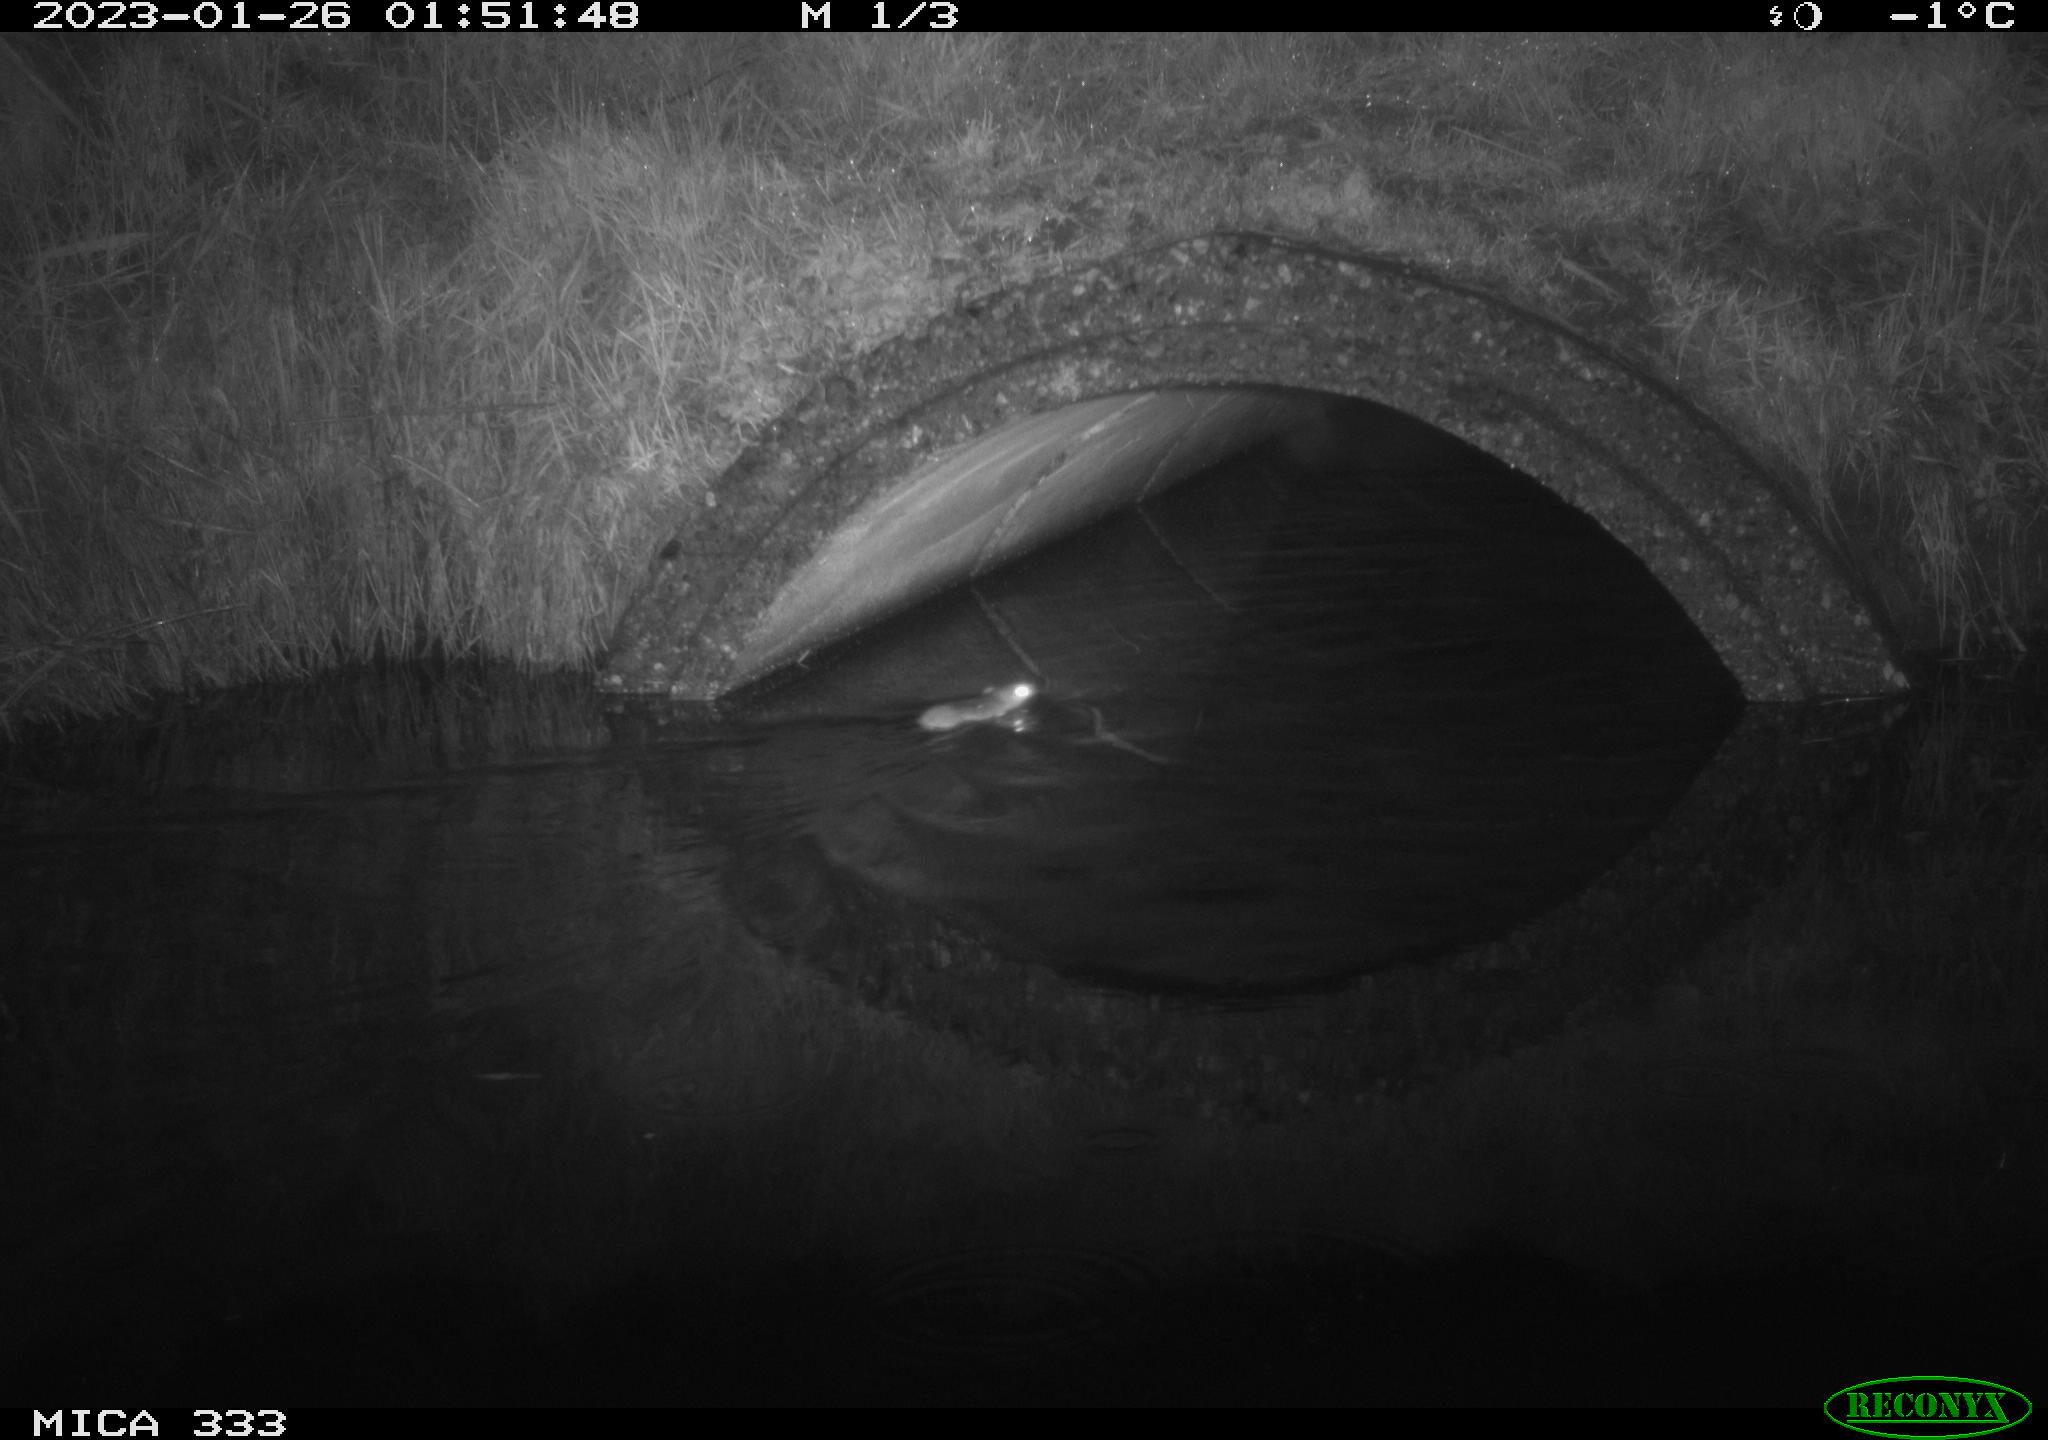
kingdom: Animalia
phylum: Chordata
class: Mammalia
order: Rodentia
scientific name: Rodentia
